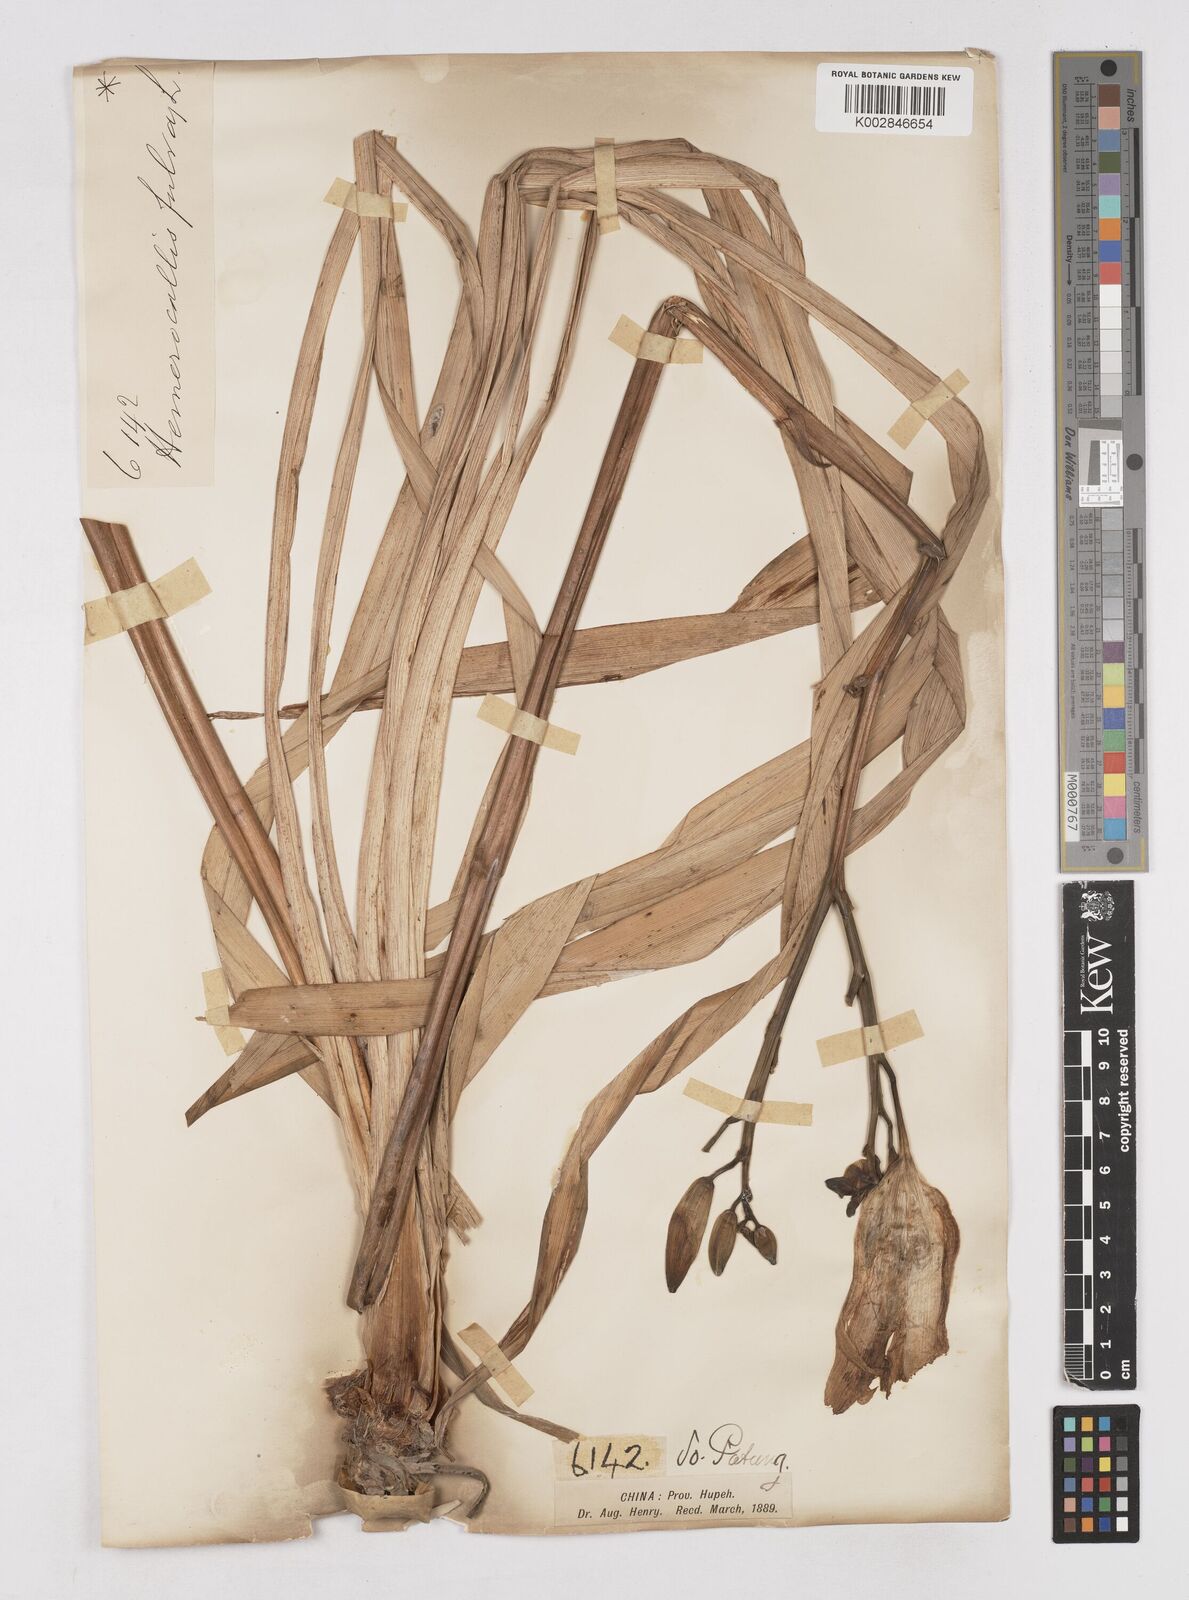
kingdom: Plantae
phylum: Tracheophyta
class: Liliopsida
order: Asparagales
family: Asphodelaceae
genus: Hemerocallis
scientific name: Hemerocallis fulva
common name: Orange day-lily
